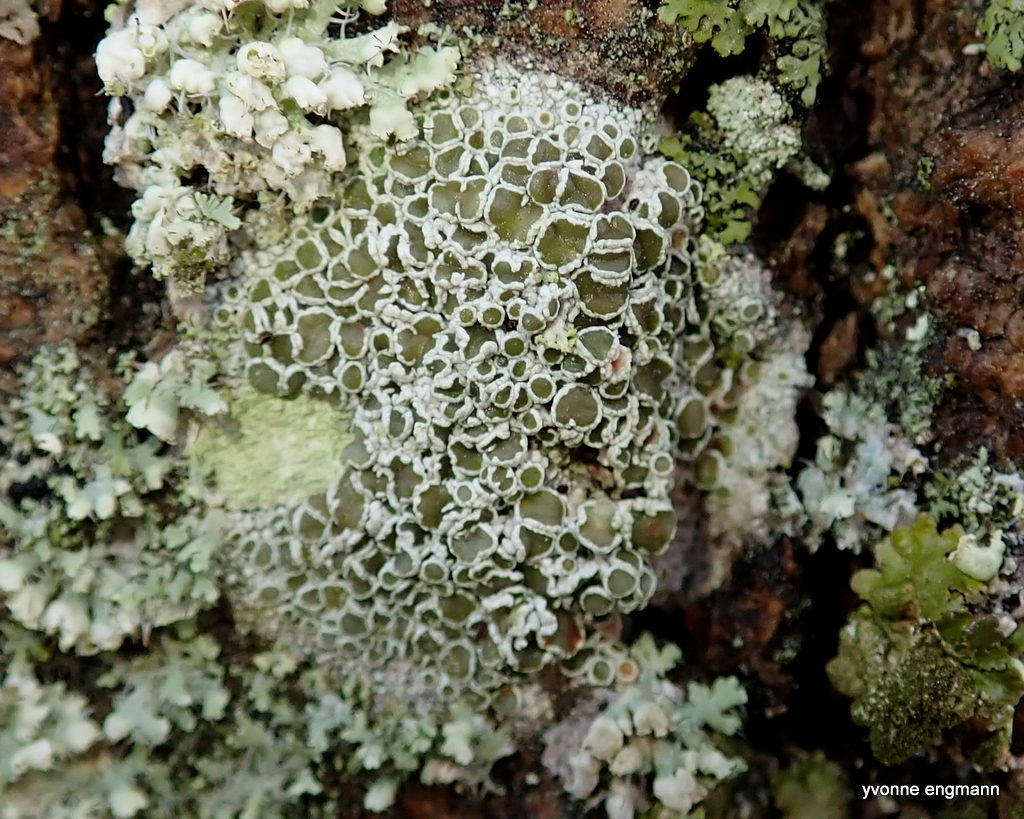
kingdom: Fungi
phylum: Ascomycota
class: Lecanoromycetes
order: Lecanorales
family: Lecanoraceae
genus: Lecanora
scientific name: Lecanora chlarotera
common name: brun kantskivelav
